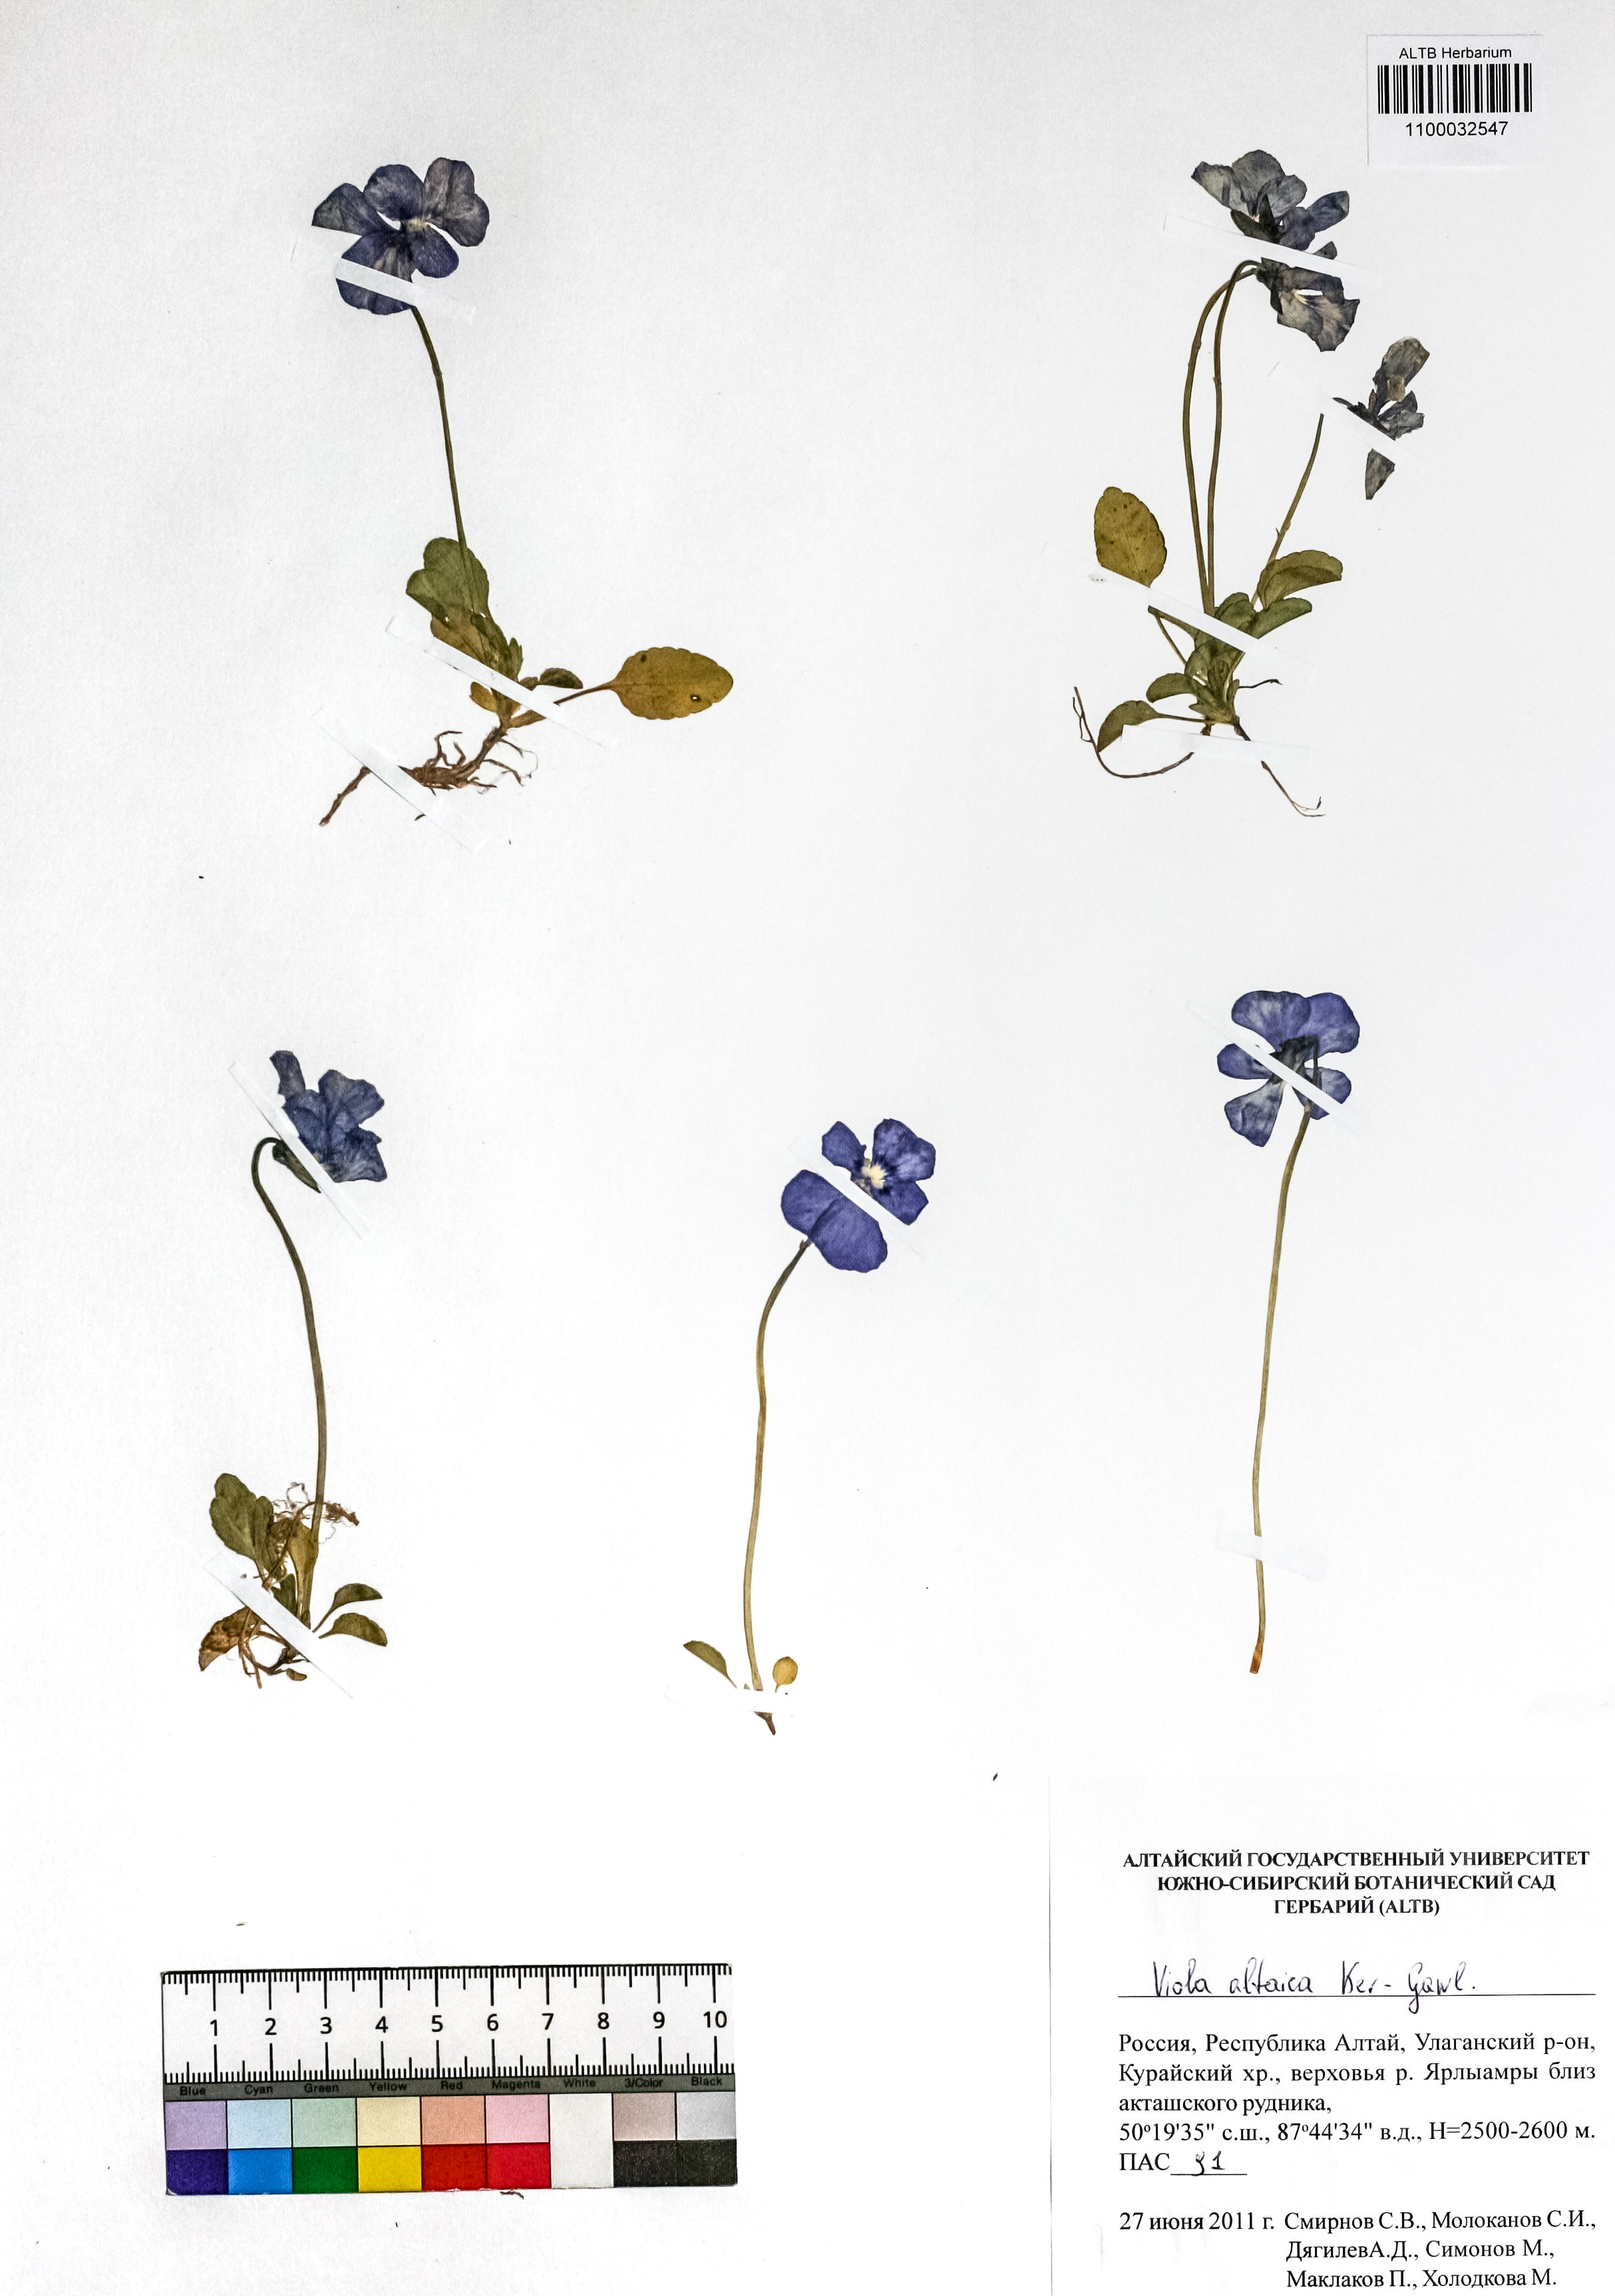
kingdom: Plantae
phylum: Tracheophyta
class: Magnoliopsida
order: Malpighiales
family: Violaceae
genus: Viola
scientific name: Viola altaica
